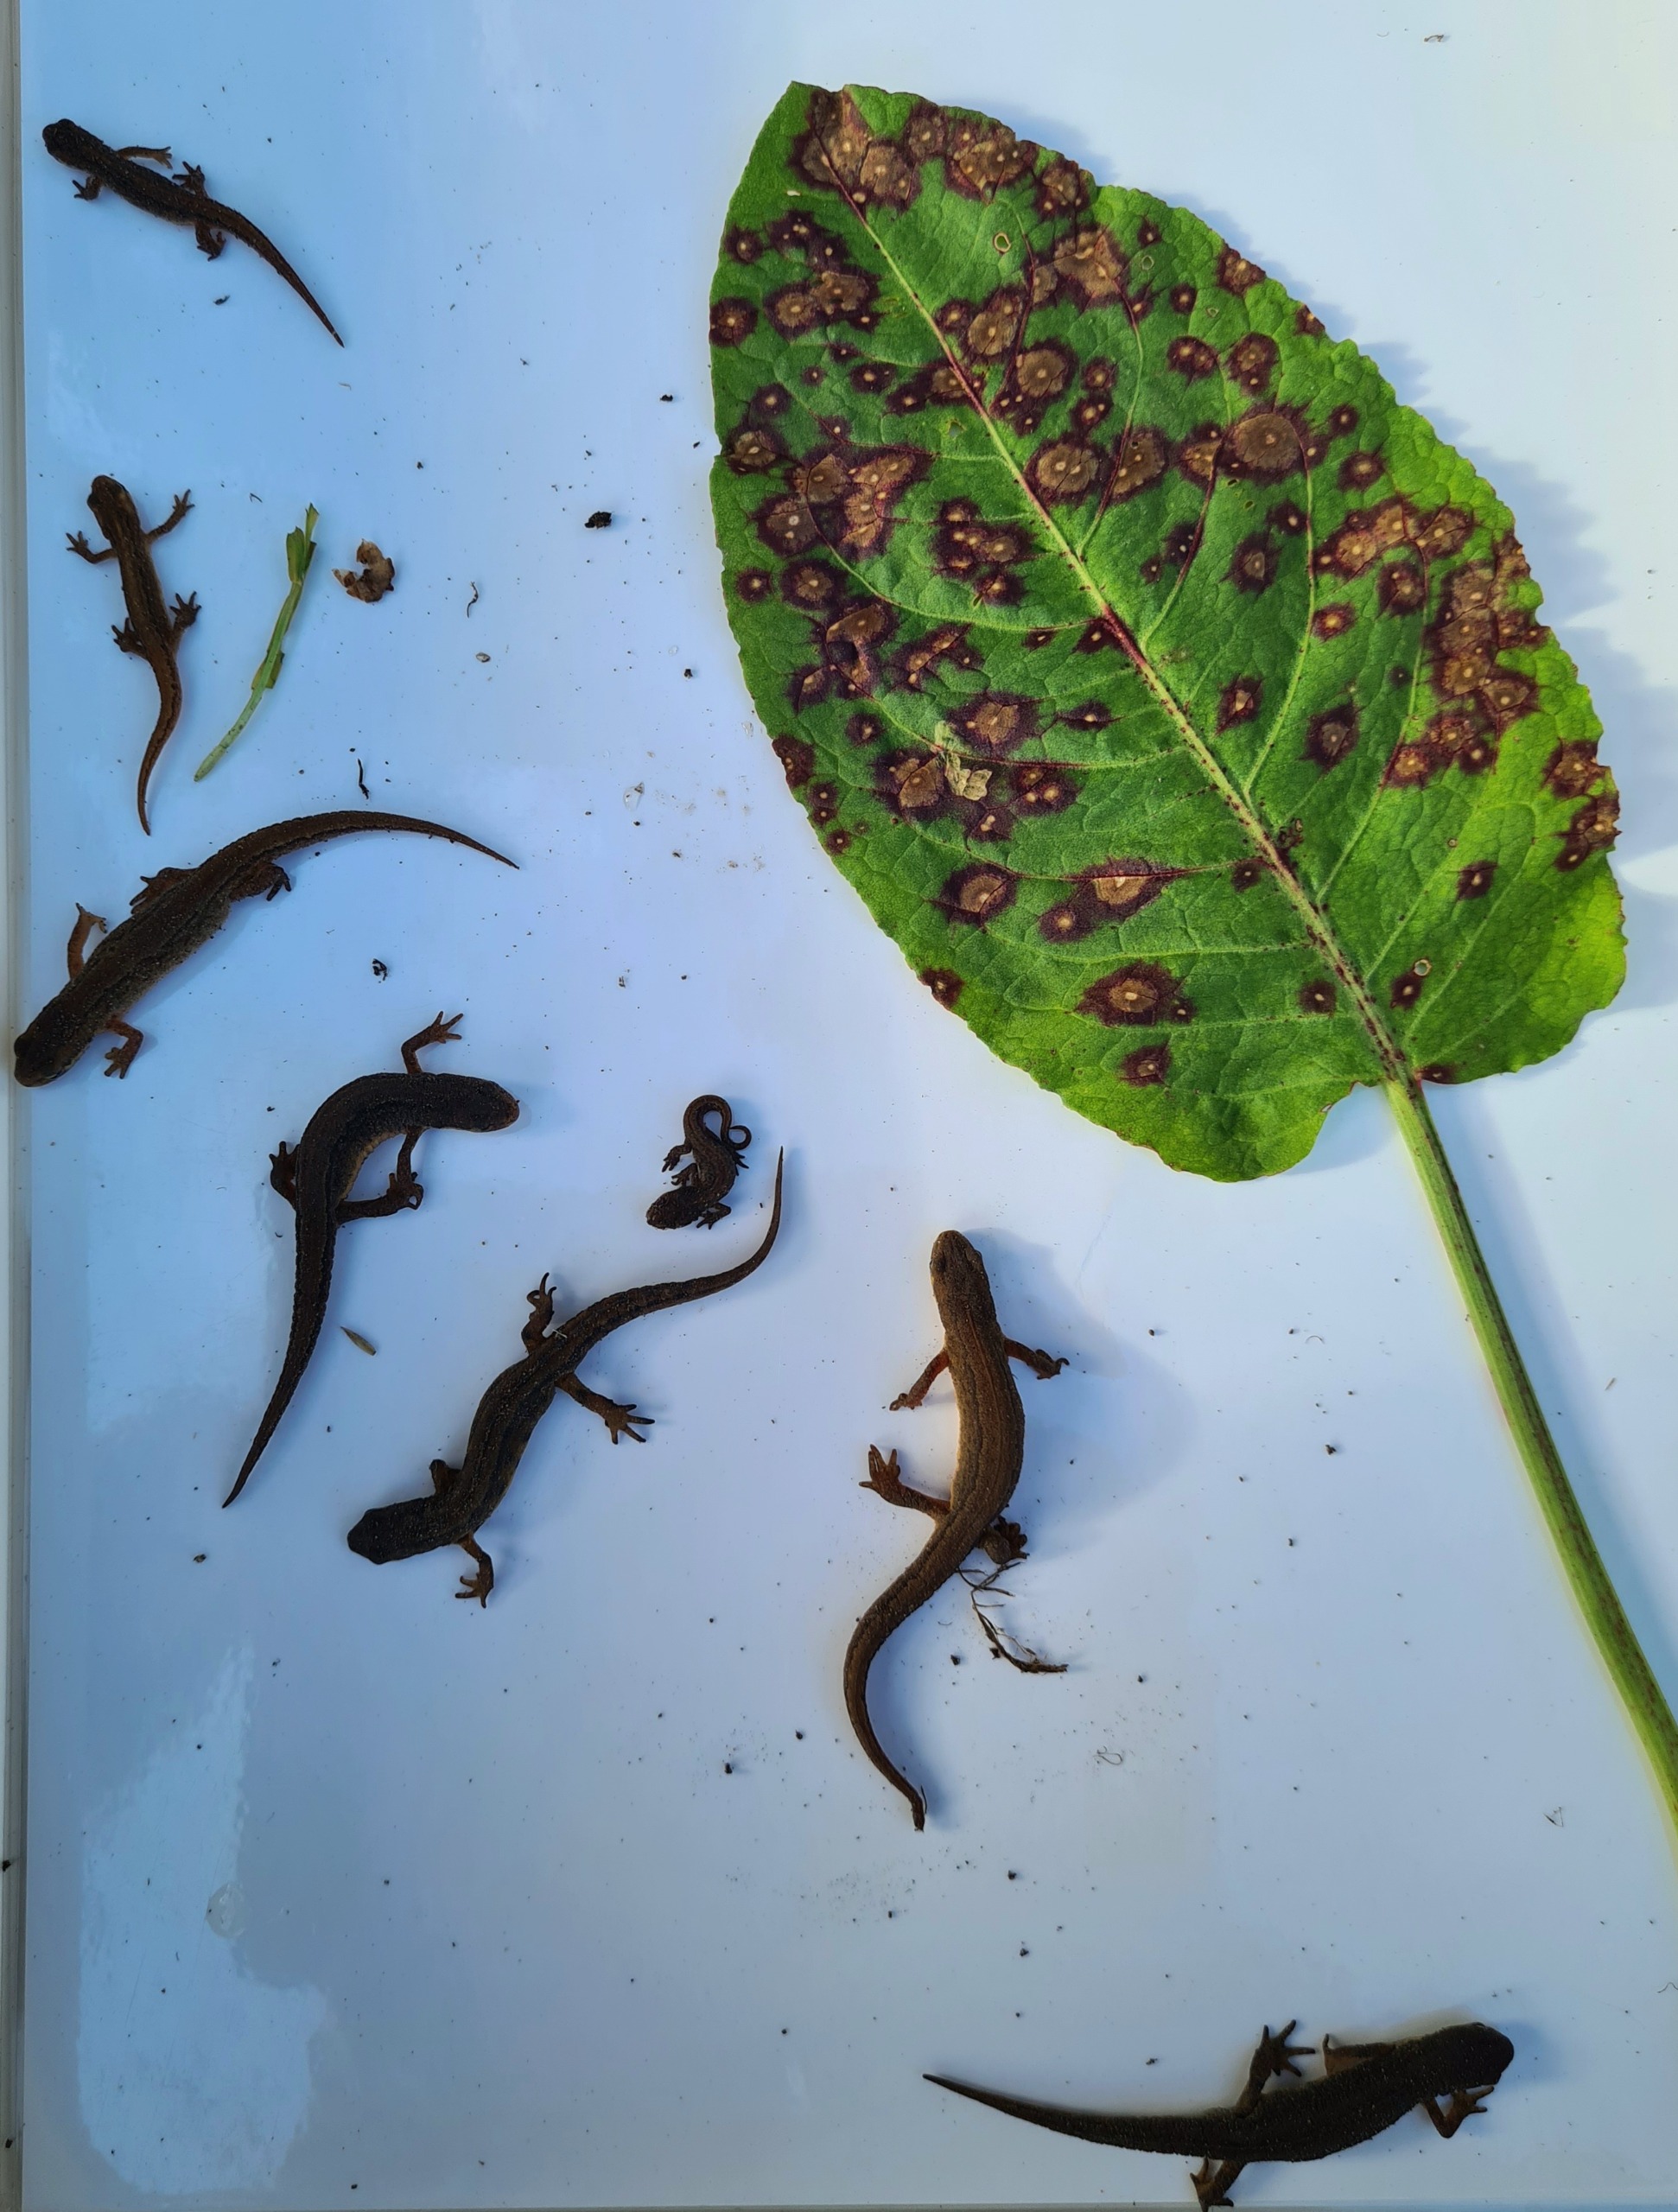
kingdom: Animalia
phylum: Chordata
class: Amphibia
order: Caudata
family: Salamandridae
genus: Lissotriton
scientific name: Lissotriton vulgaris
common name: Lille vandsalamander
